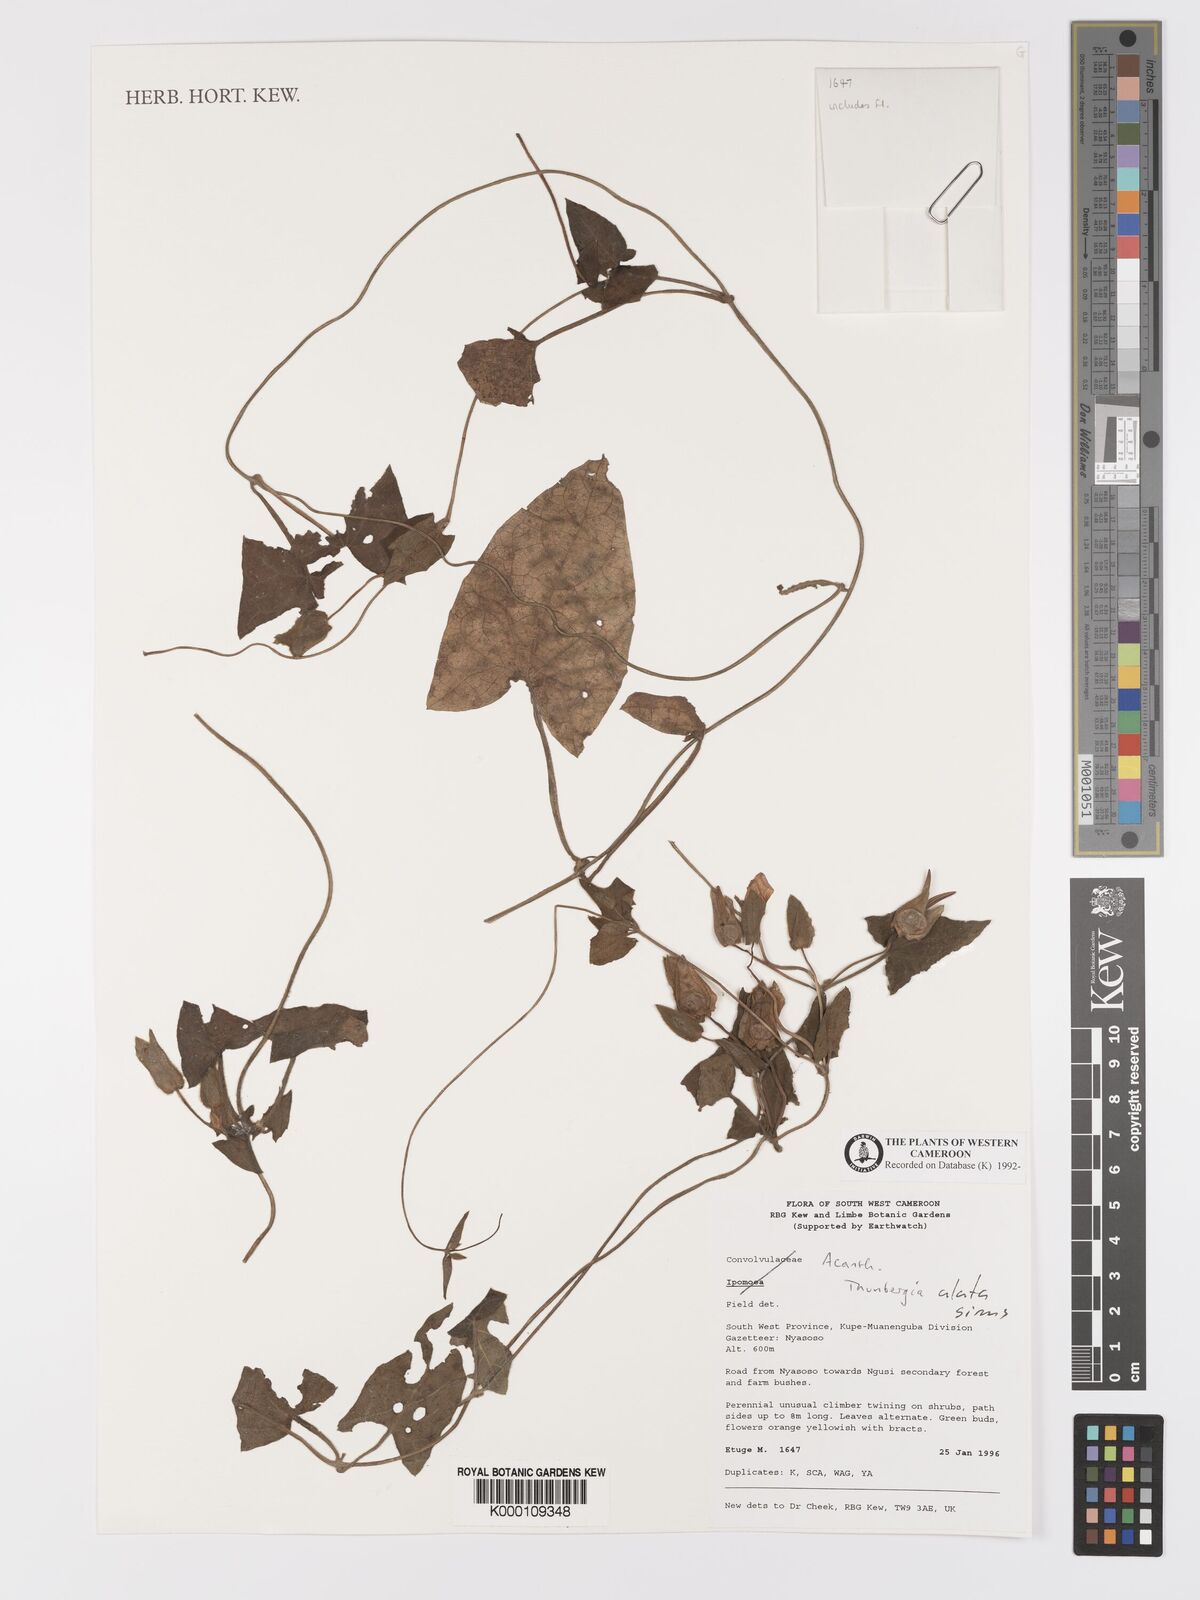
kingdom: Plantae
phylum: Tracheophyta
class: Magnoliopsida
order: Lamiales
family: Acanthaceae
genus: Thunbergia
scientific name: Thunbergia alata
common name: Blackeyed susan vine
